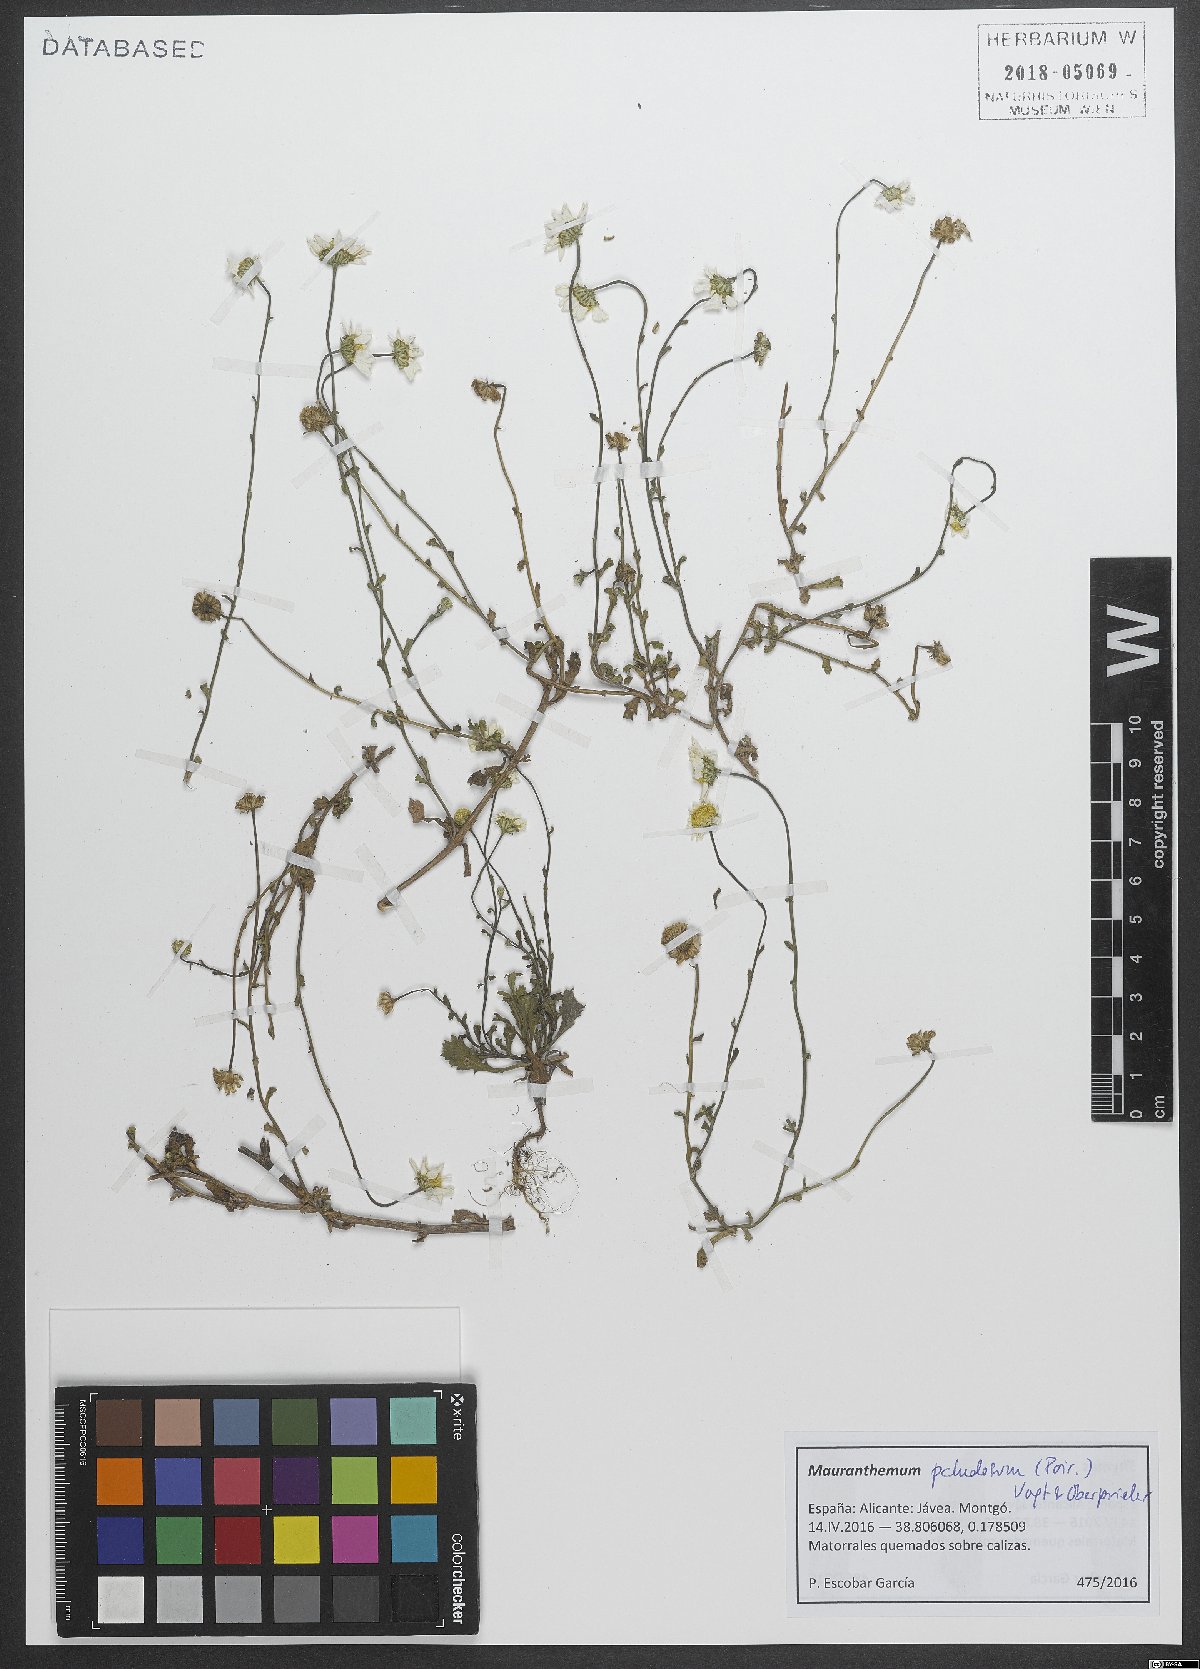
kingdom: Plantae
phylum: Tracheophyta
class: Magnoliopsida
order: Asterales
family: Asteraceae
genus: Mauranthemum
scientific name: Mauranthemum paludosum
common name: Sunflower
